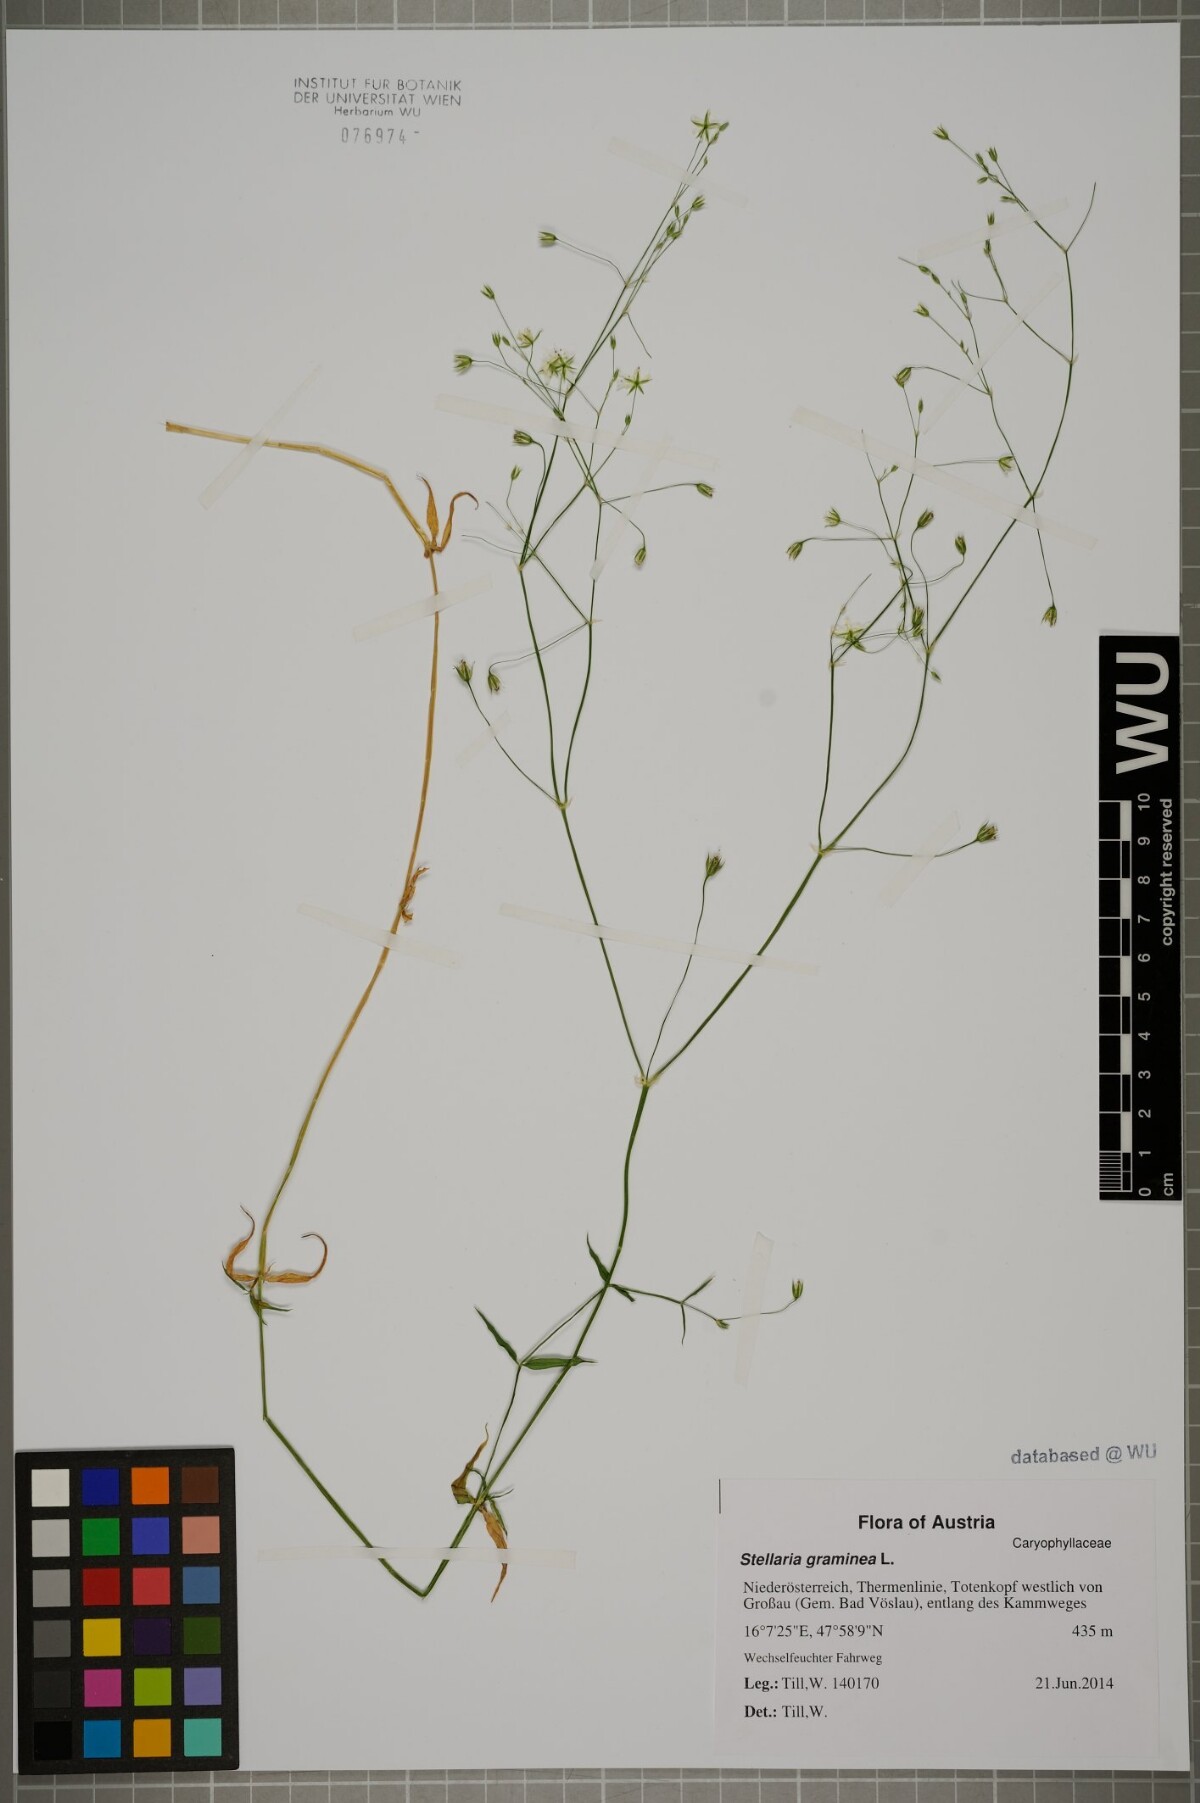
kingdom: Plantae
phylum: Tracheophyta
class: Magnoliopsida
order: Caryophyllales
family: Caryophyllaceae
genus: Stellaria
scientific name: Stellaria graminea
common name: Grass-like starwort
